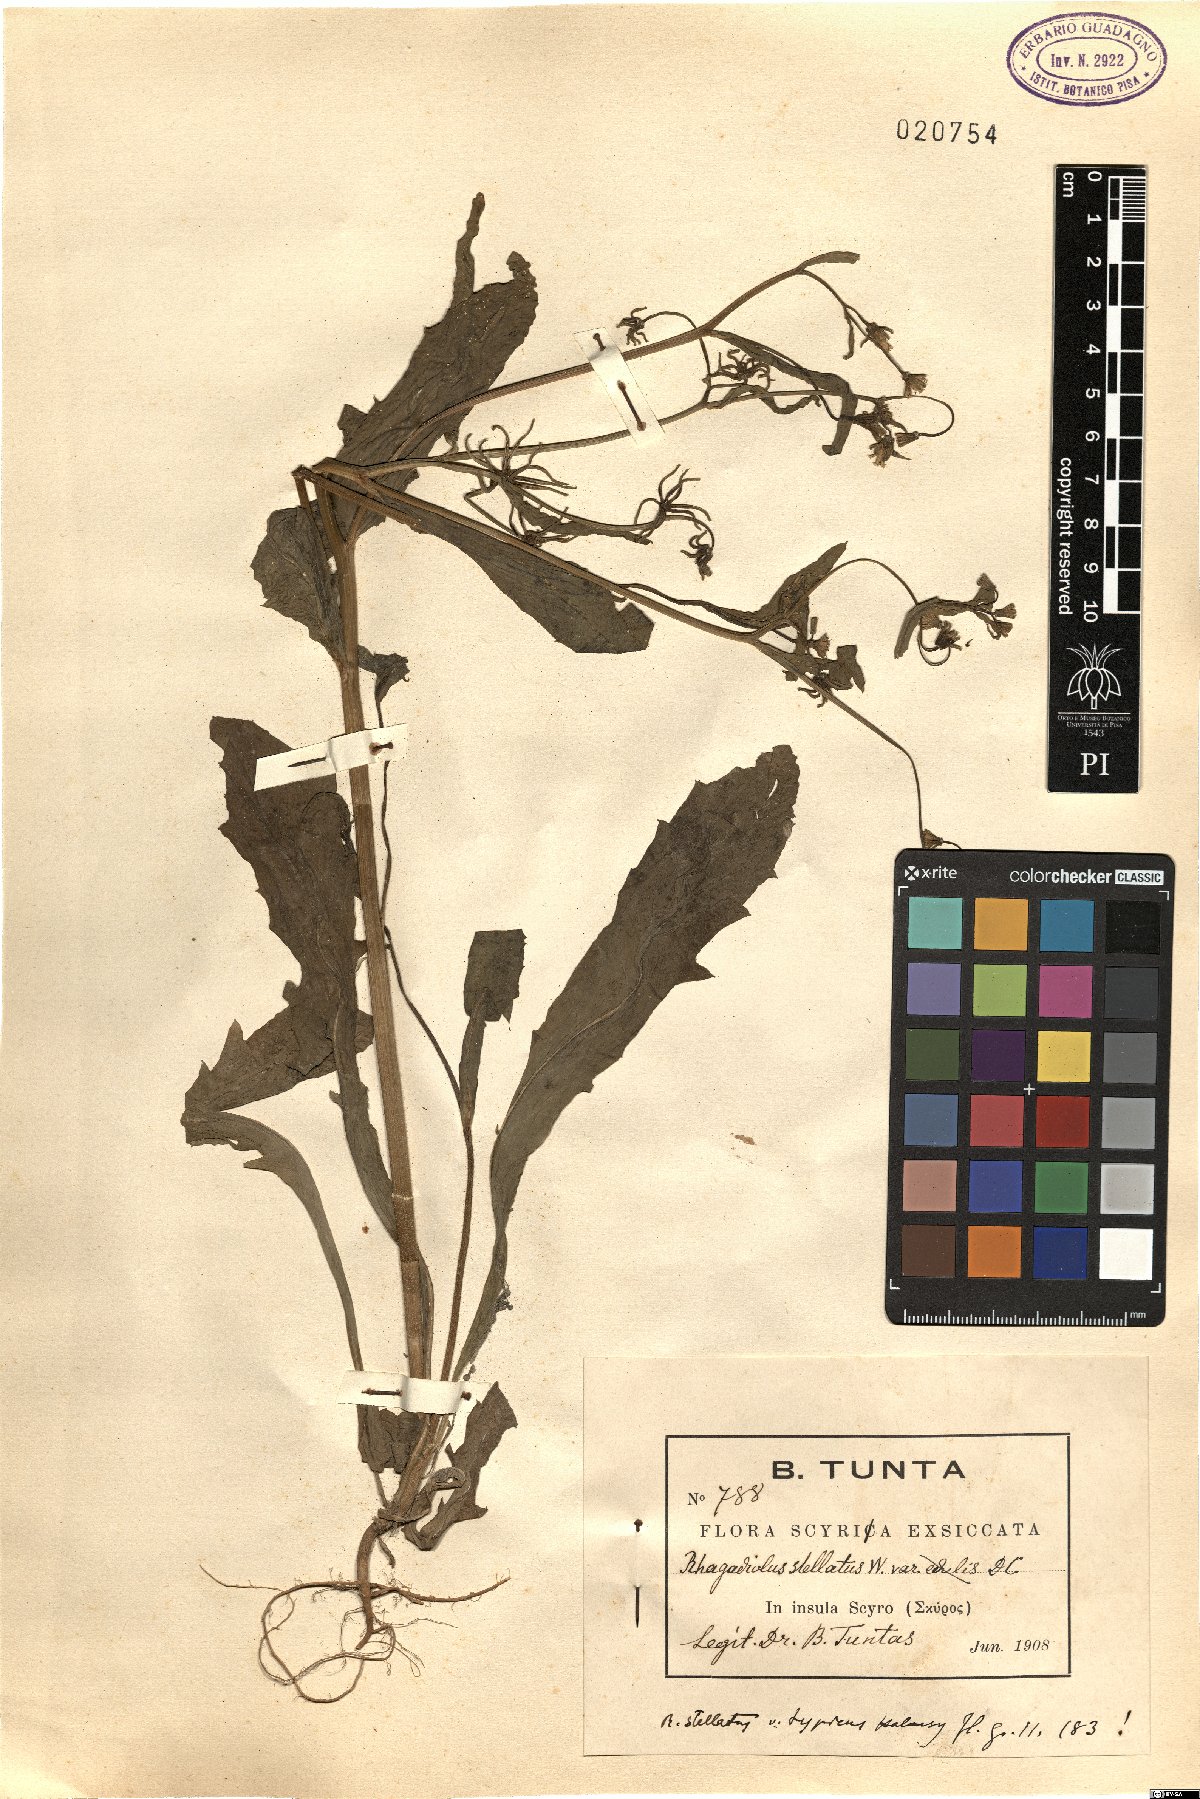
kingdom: Plantae
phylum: Tracheophyta
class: Magnoliopsida
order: Asterales
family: Asteraceae
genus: Rhagadiolus
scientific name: Rhagadiolus stellatus
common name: Star hawkbit
